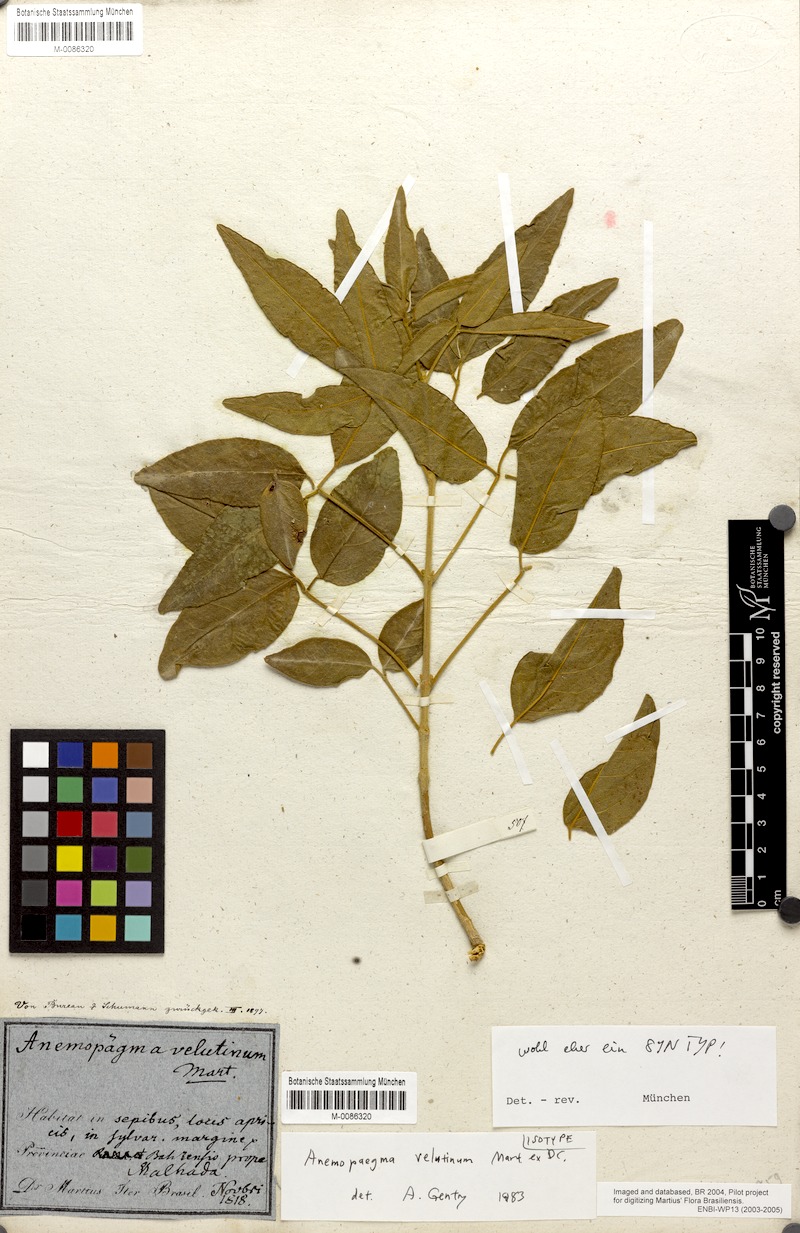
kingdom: Plantae
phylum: Tracheophyta
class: Magnoliopsida
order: Lamiales
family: Bignoniaceae
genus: Anemopaegma
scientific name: Anemopaegma velutinum
